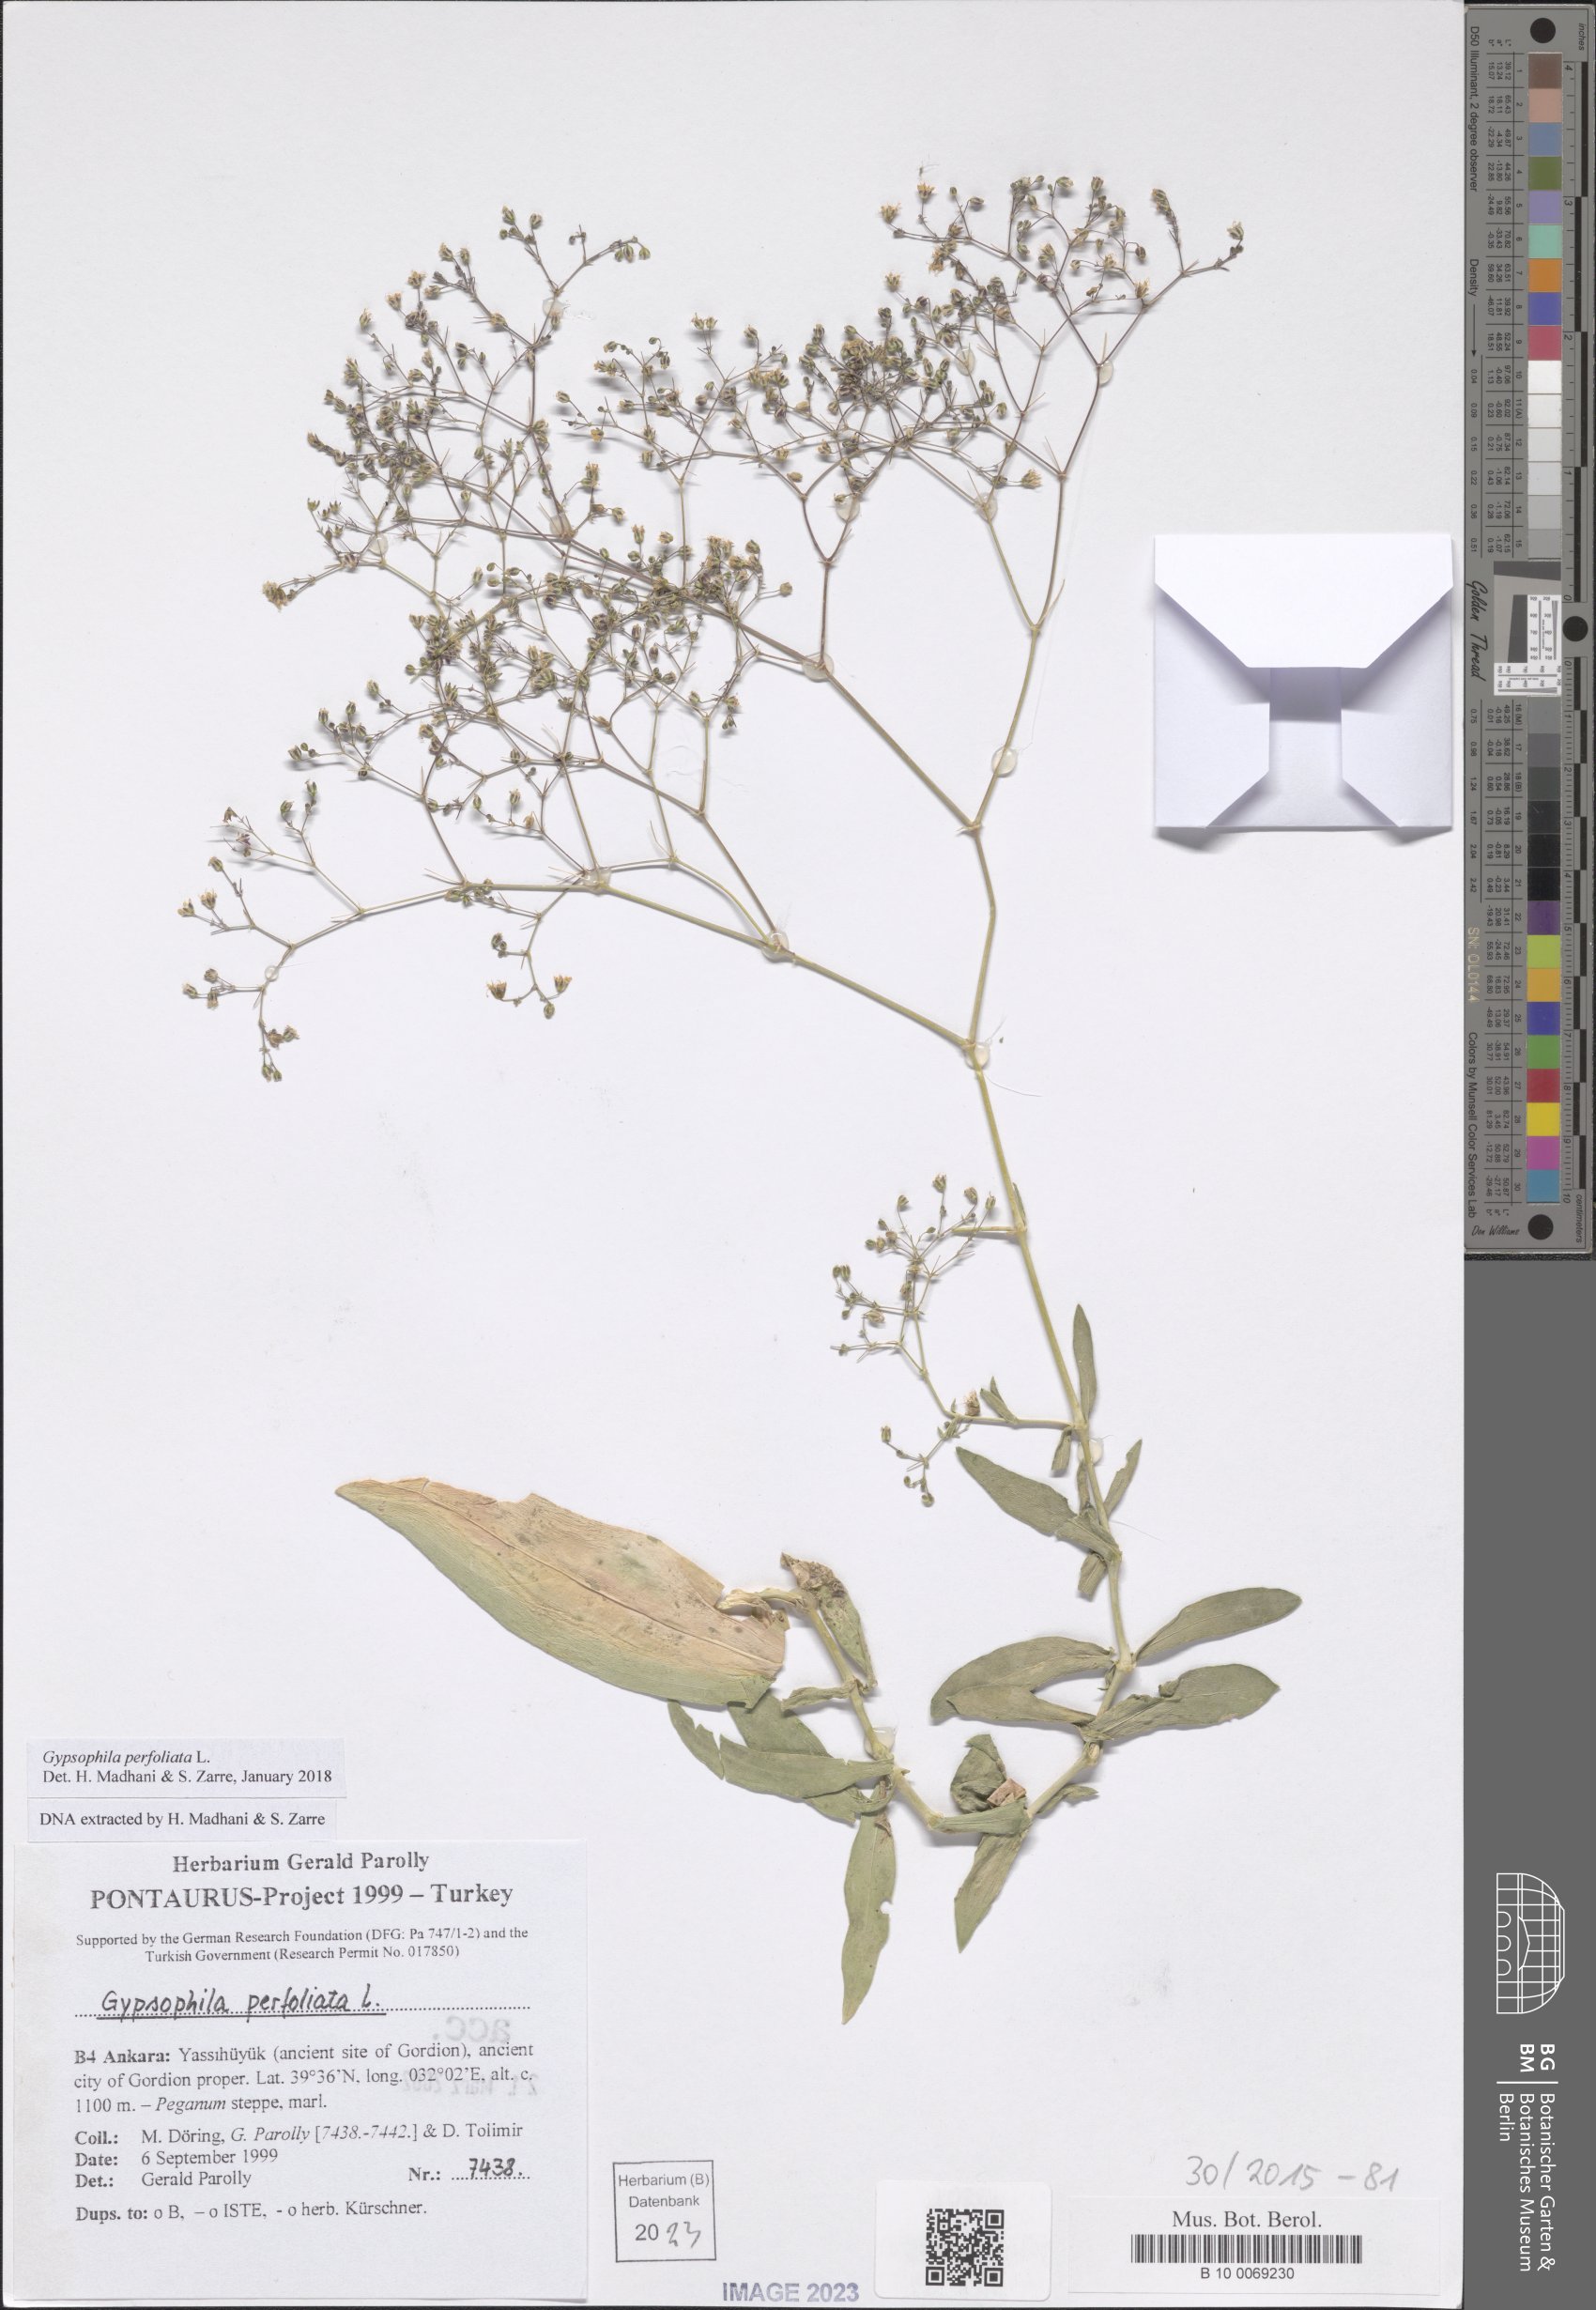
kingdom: Plantae
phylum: Tracheophyta
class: Magnoliopsida
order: Caryophyllales
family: Caryophyllaceae
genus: Gypsophila
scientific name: Gypsophila perfoliata
